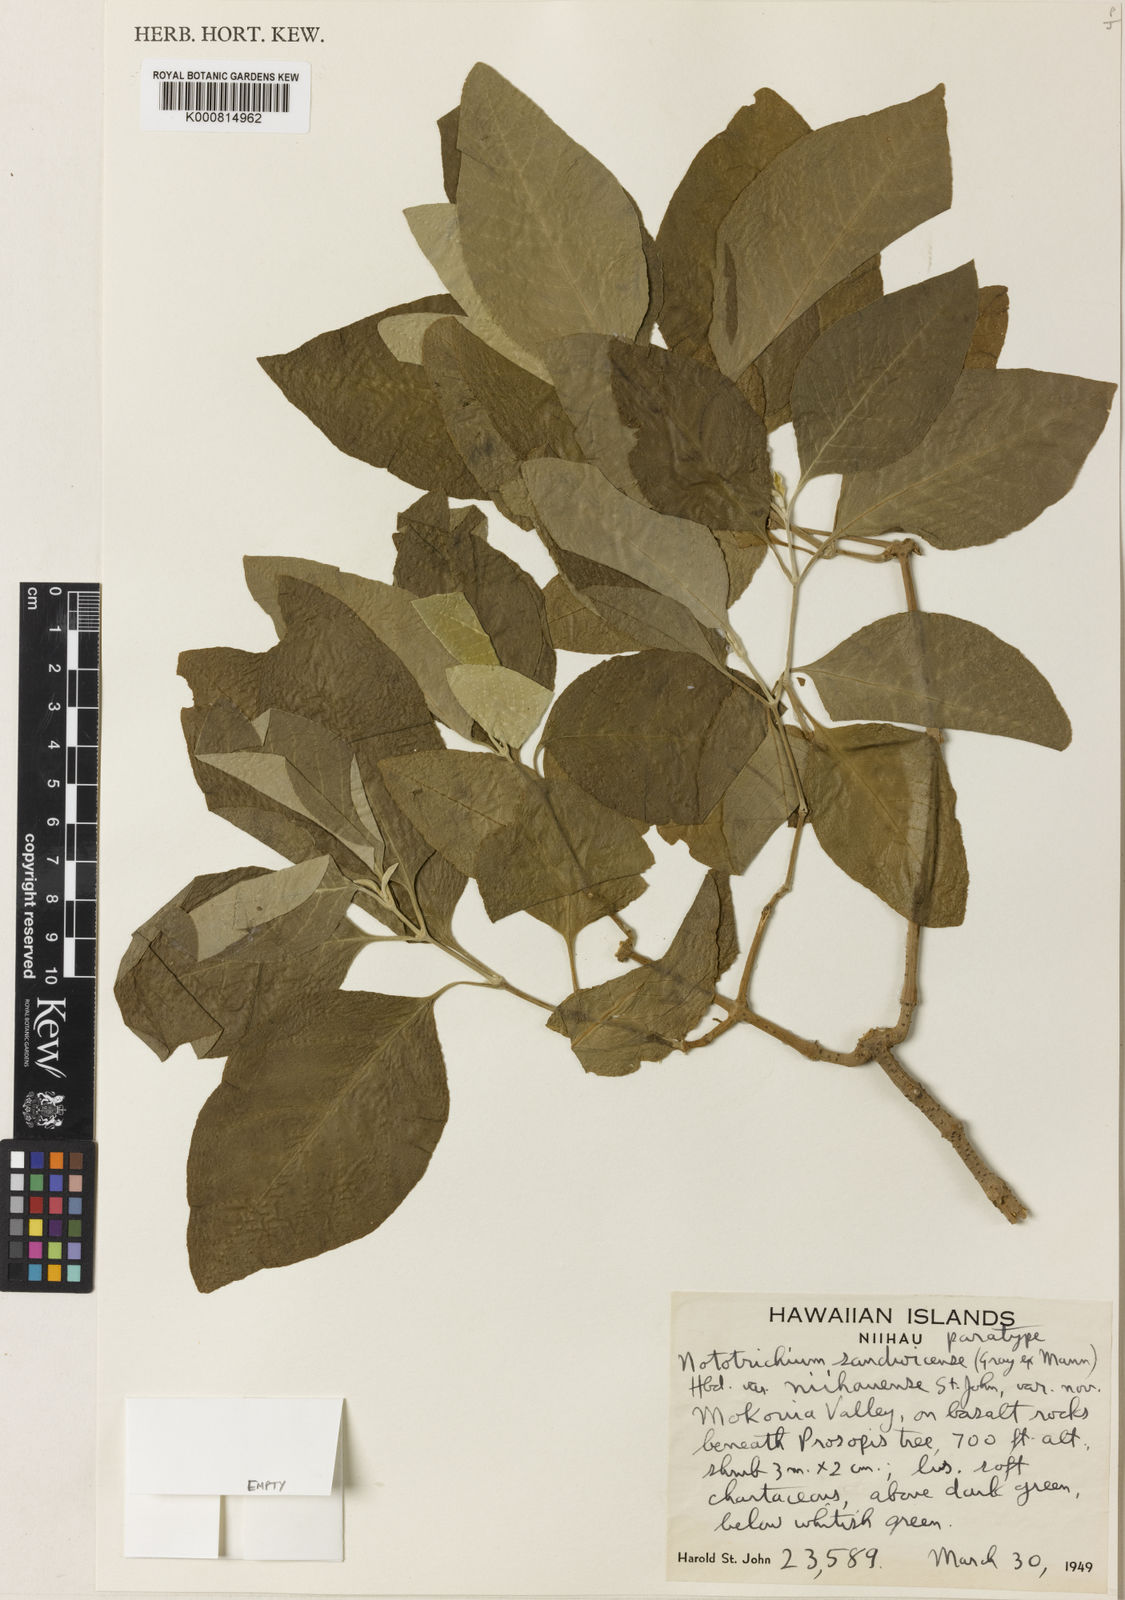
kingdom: Plantae
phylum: Tracheophyta
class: Magnoliopsida
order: Caryophyllales
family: Amaranthaceae
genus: Nototrichium
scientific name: Nototrichium
